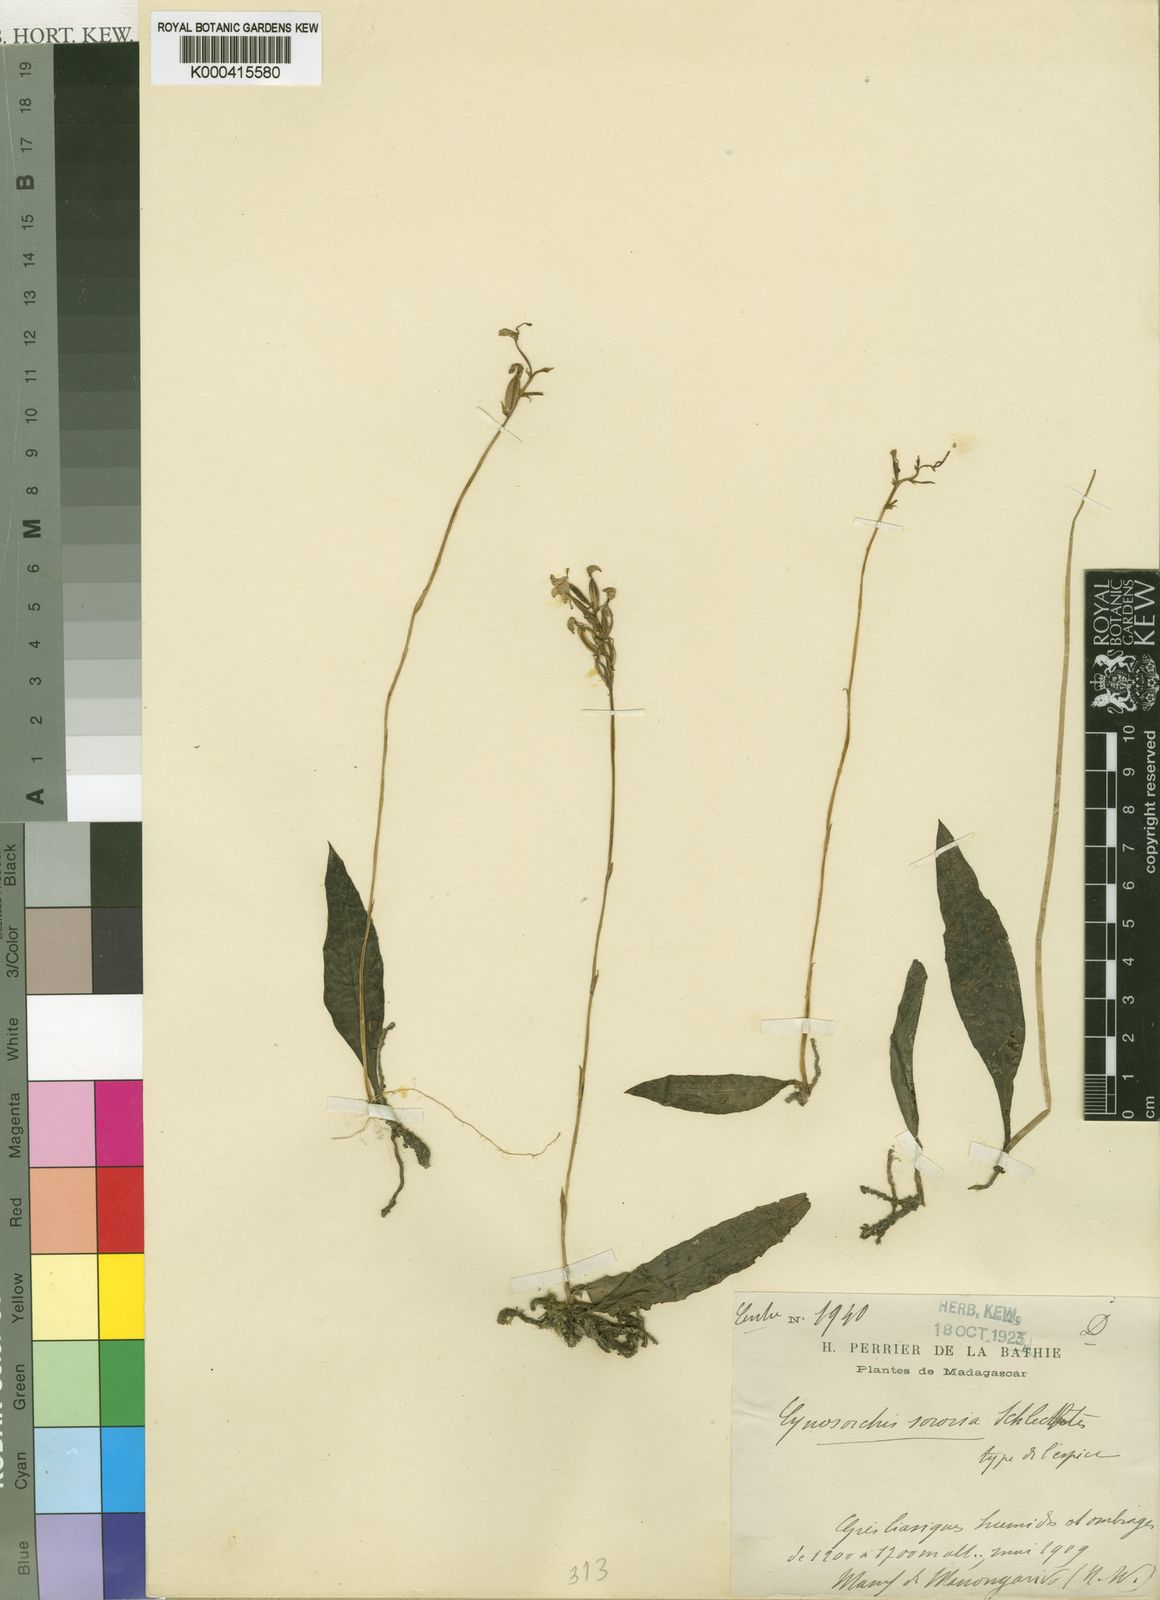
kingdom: Plantae
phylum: Tracheophyta
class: Liliopsida
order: Asparagales
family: Orchidaceae
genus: Cynorkis
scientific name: Cynorkis sororia
